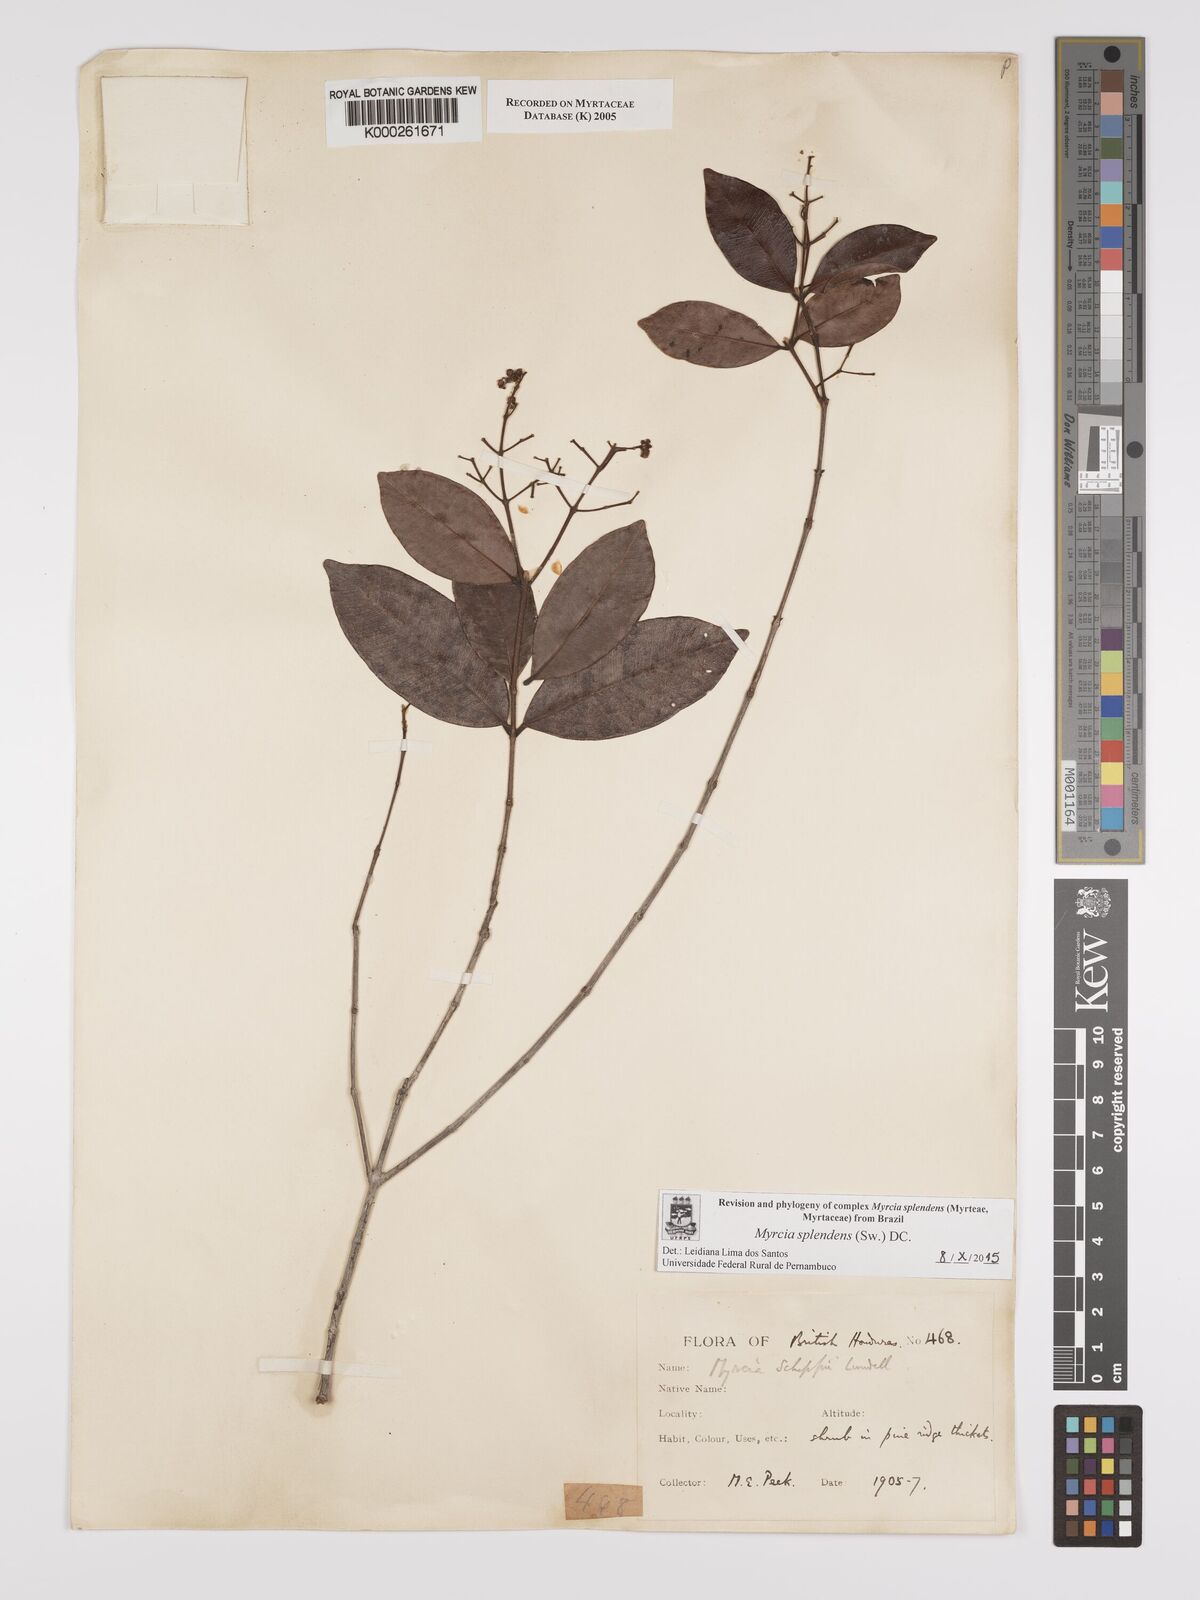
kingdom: Plantae
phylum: Tracheophyta
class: Magnoliopsida
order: Myrtales
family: Myrtaceae
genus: Myrcia
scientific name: Myrcia splendens
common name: Surinam cherry
